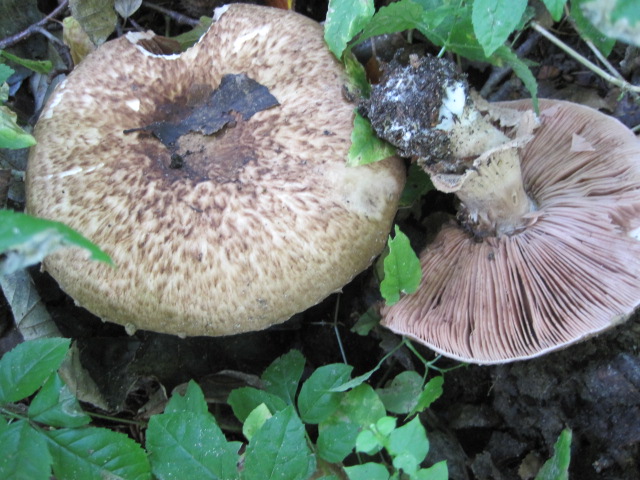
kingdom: Fungi
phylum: Basidiomycota
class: Agaricomycetes
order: Agaricales
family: Agaricaceae
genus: Agaricus
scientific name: Agaricus langei
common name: stor blod-champignon
